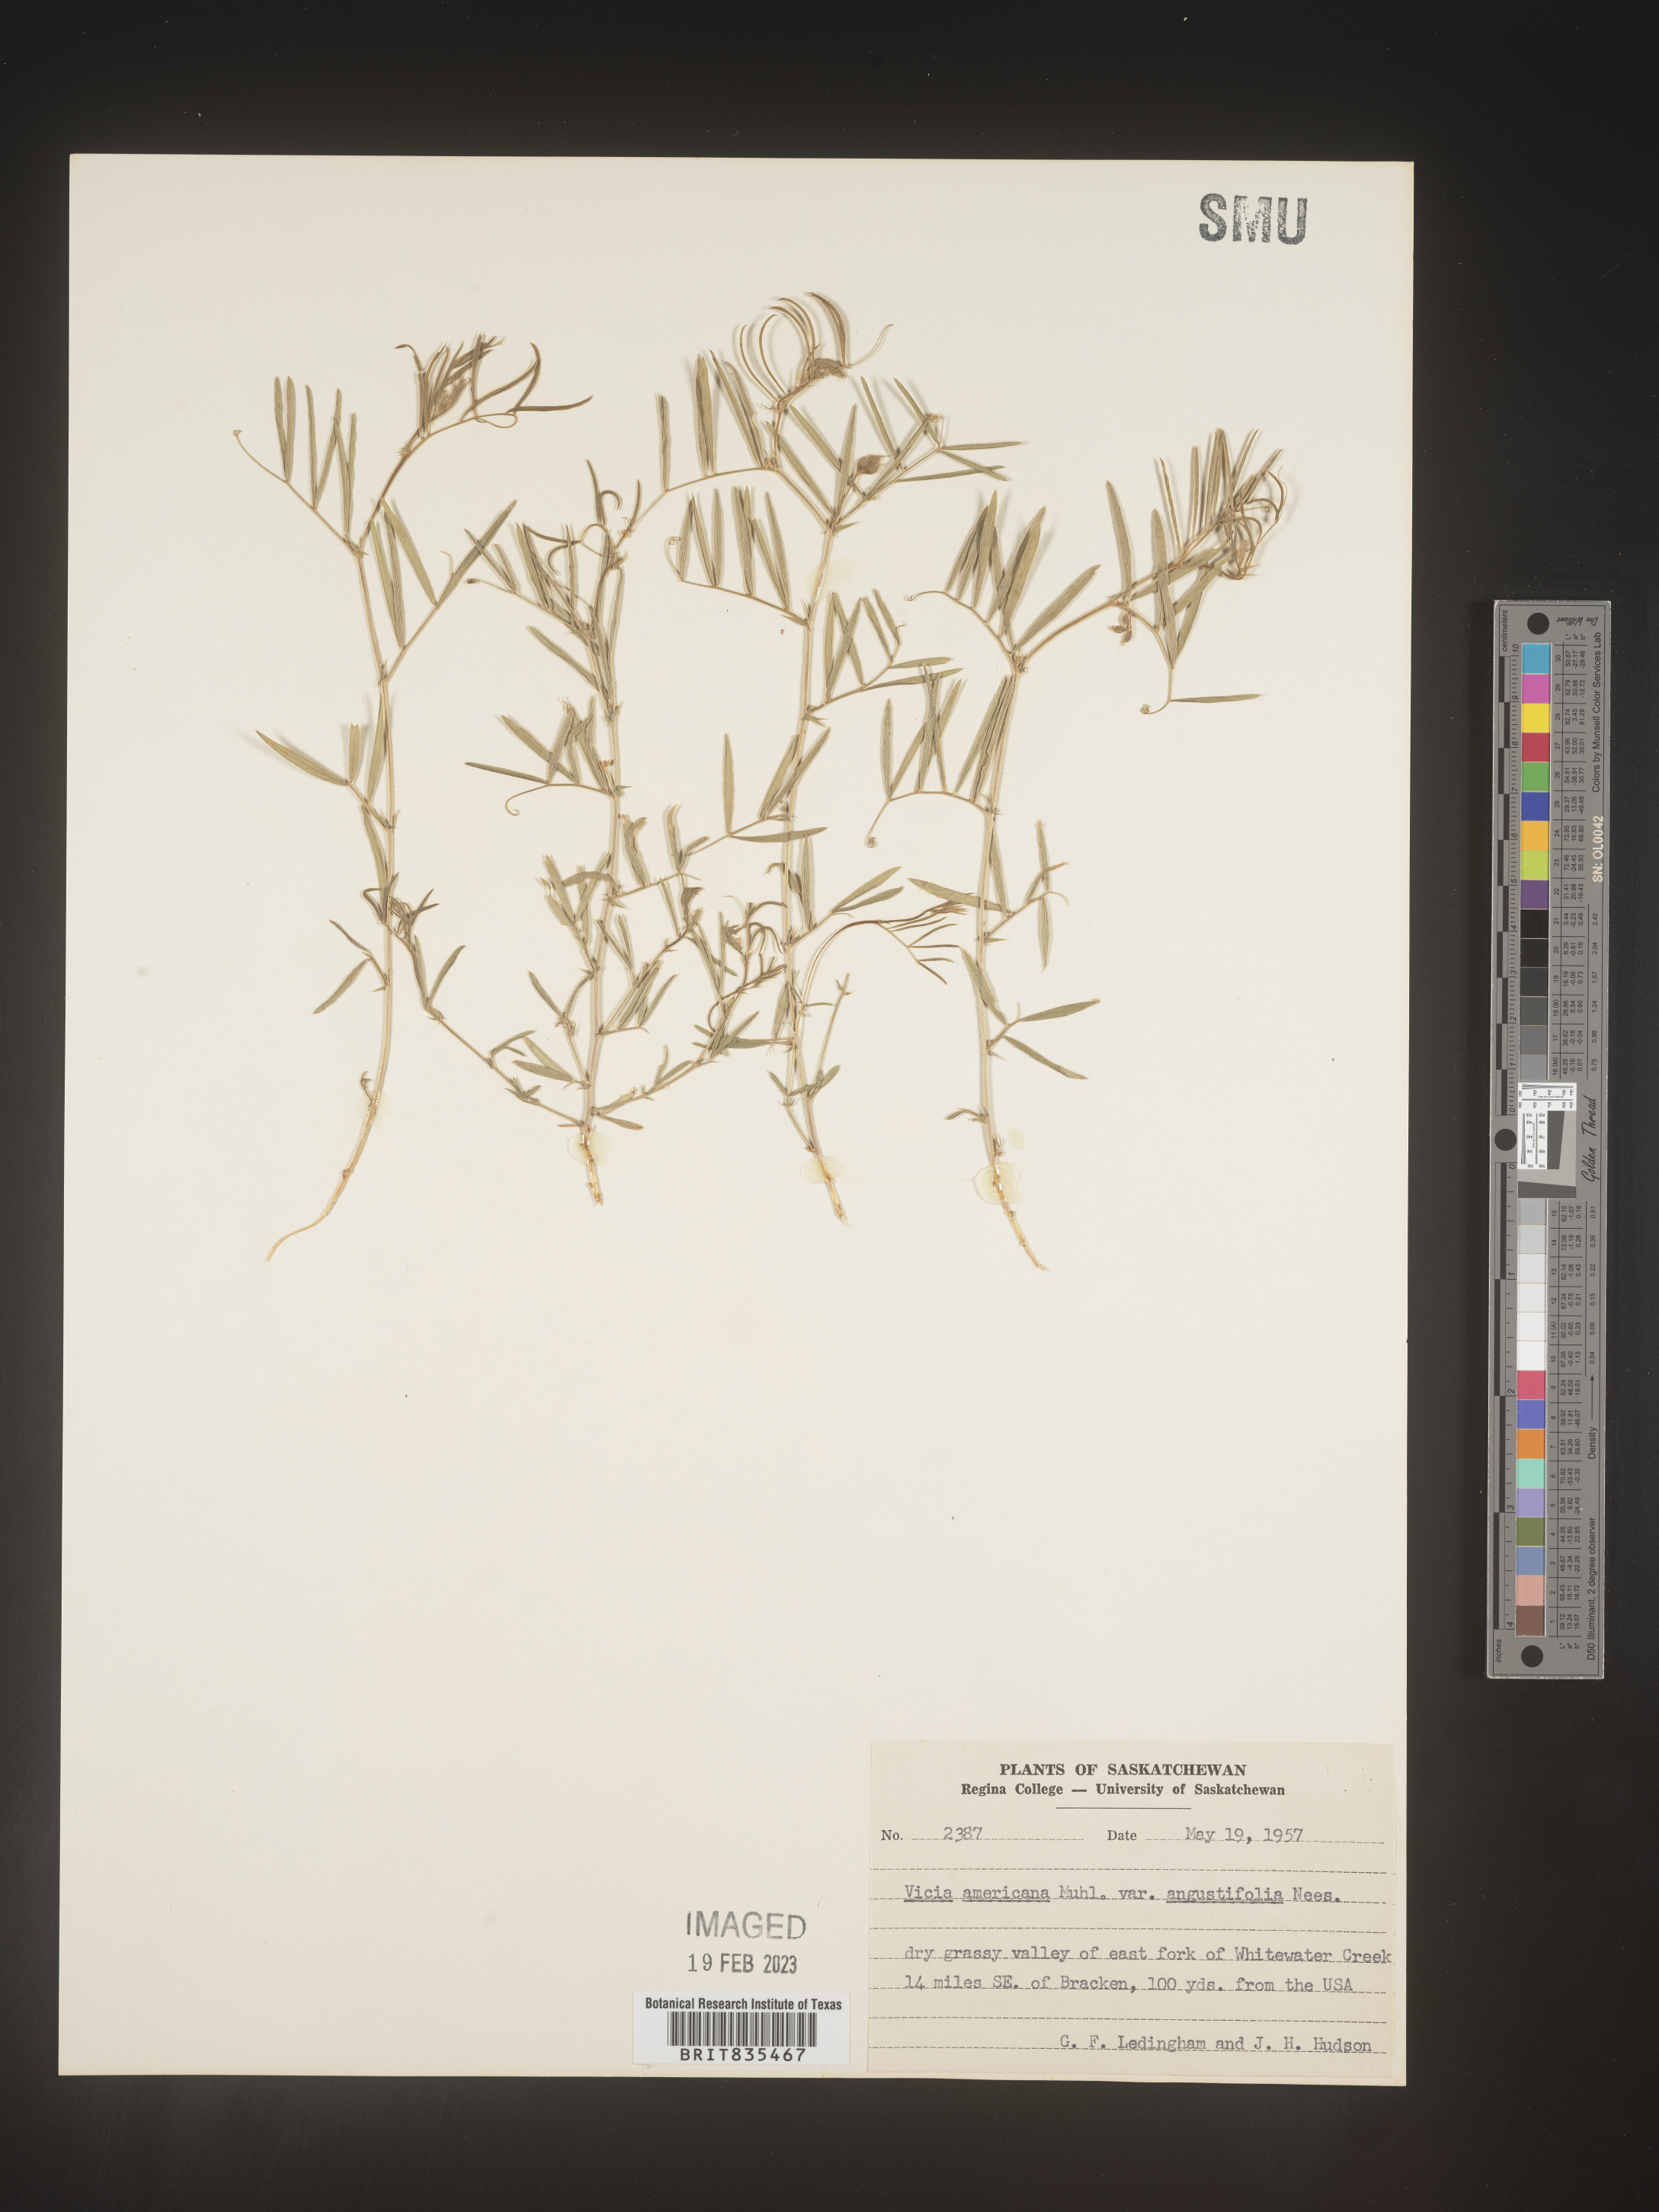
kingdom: Plantae
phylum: Tracheophyta
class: Magnoliopsida
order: Fabales
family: Fabaceae
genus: Vicia
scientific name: Vicia americana
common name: American vetch
